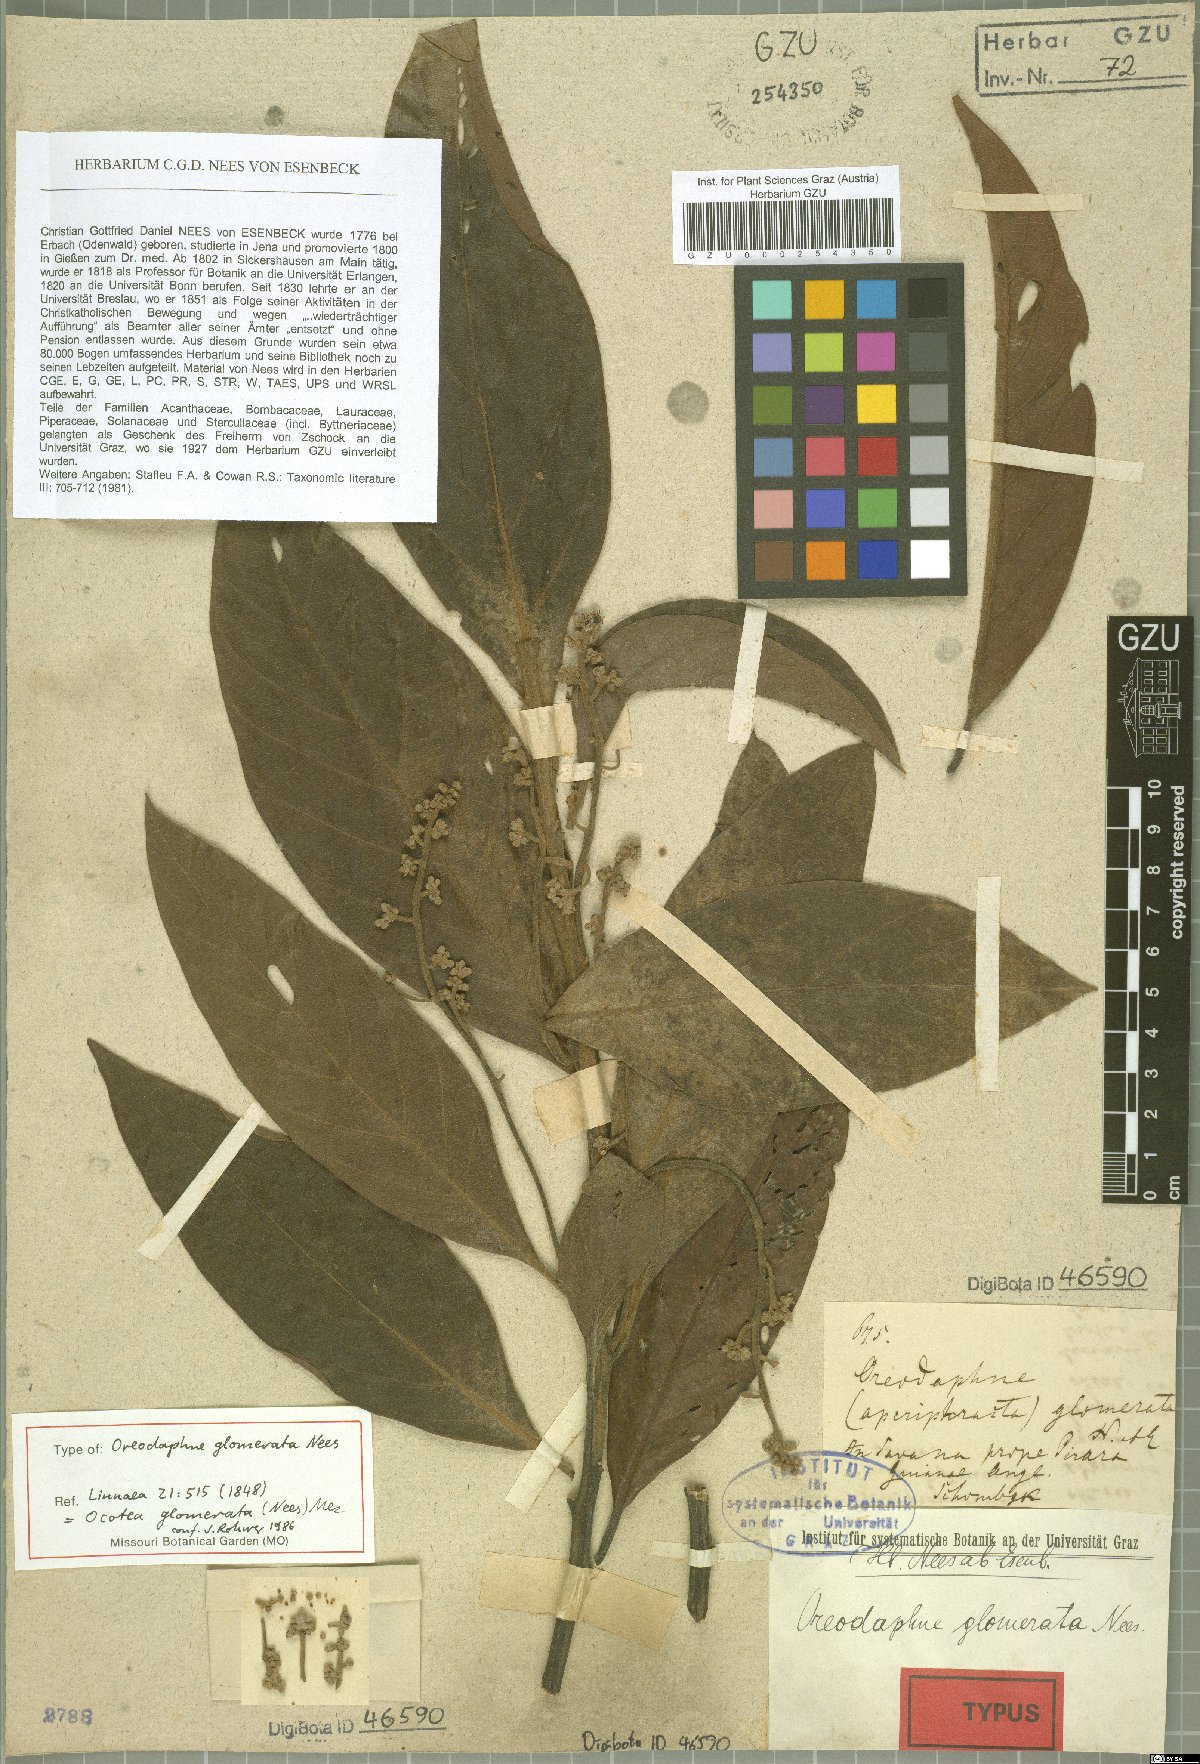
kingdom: Plantae
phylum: Tracheophyta
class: Magnoliopsida
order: Laurales
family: Lauraceae
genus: Ocotea
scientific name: Ocotea glomerata
